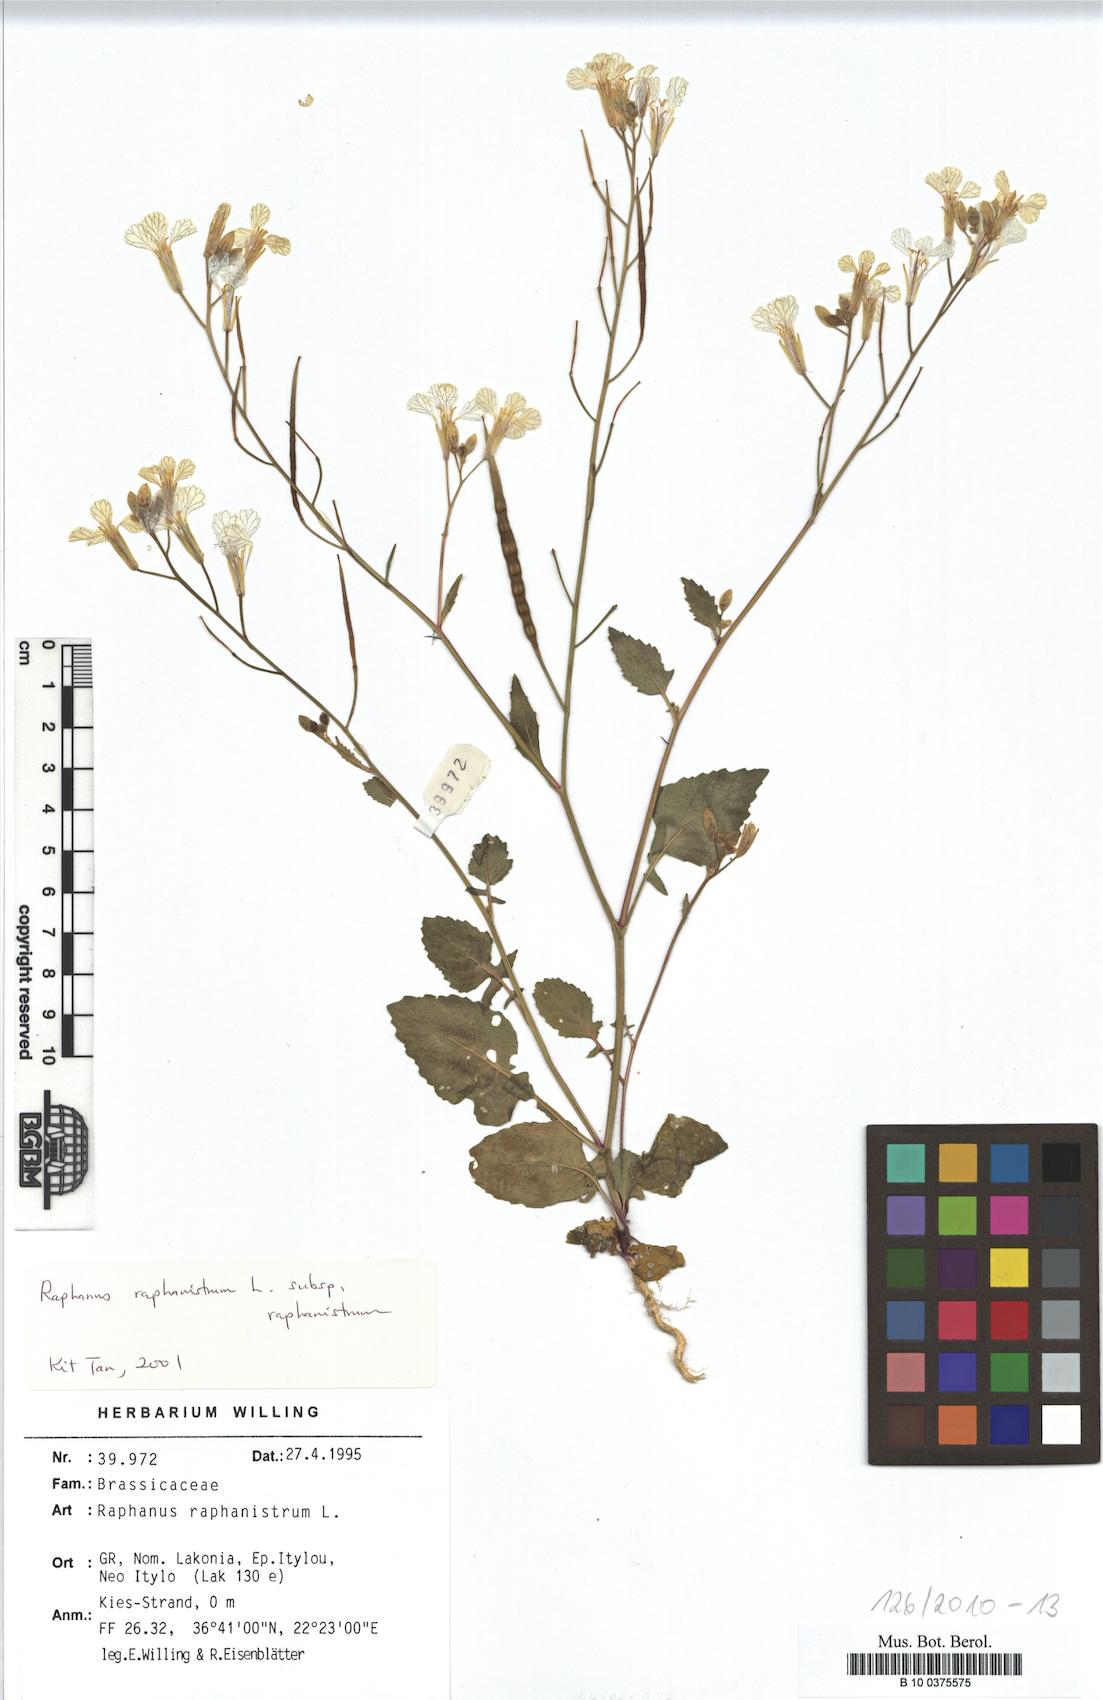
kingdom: Plantae
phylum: Tracheophyta
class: Magnoliopsida
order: Brassicales
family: Brassicaceae
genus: Raphanus
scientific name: Raphanus raphanistrum
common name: Wild radish
